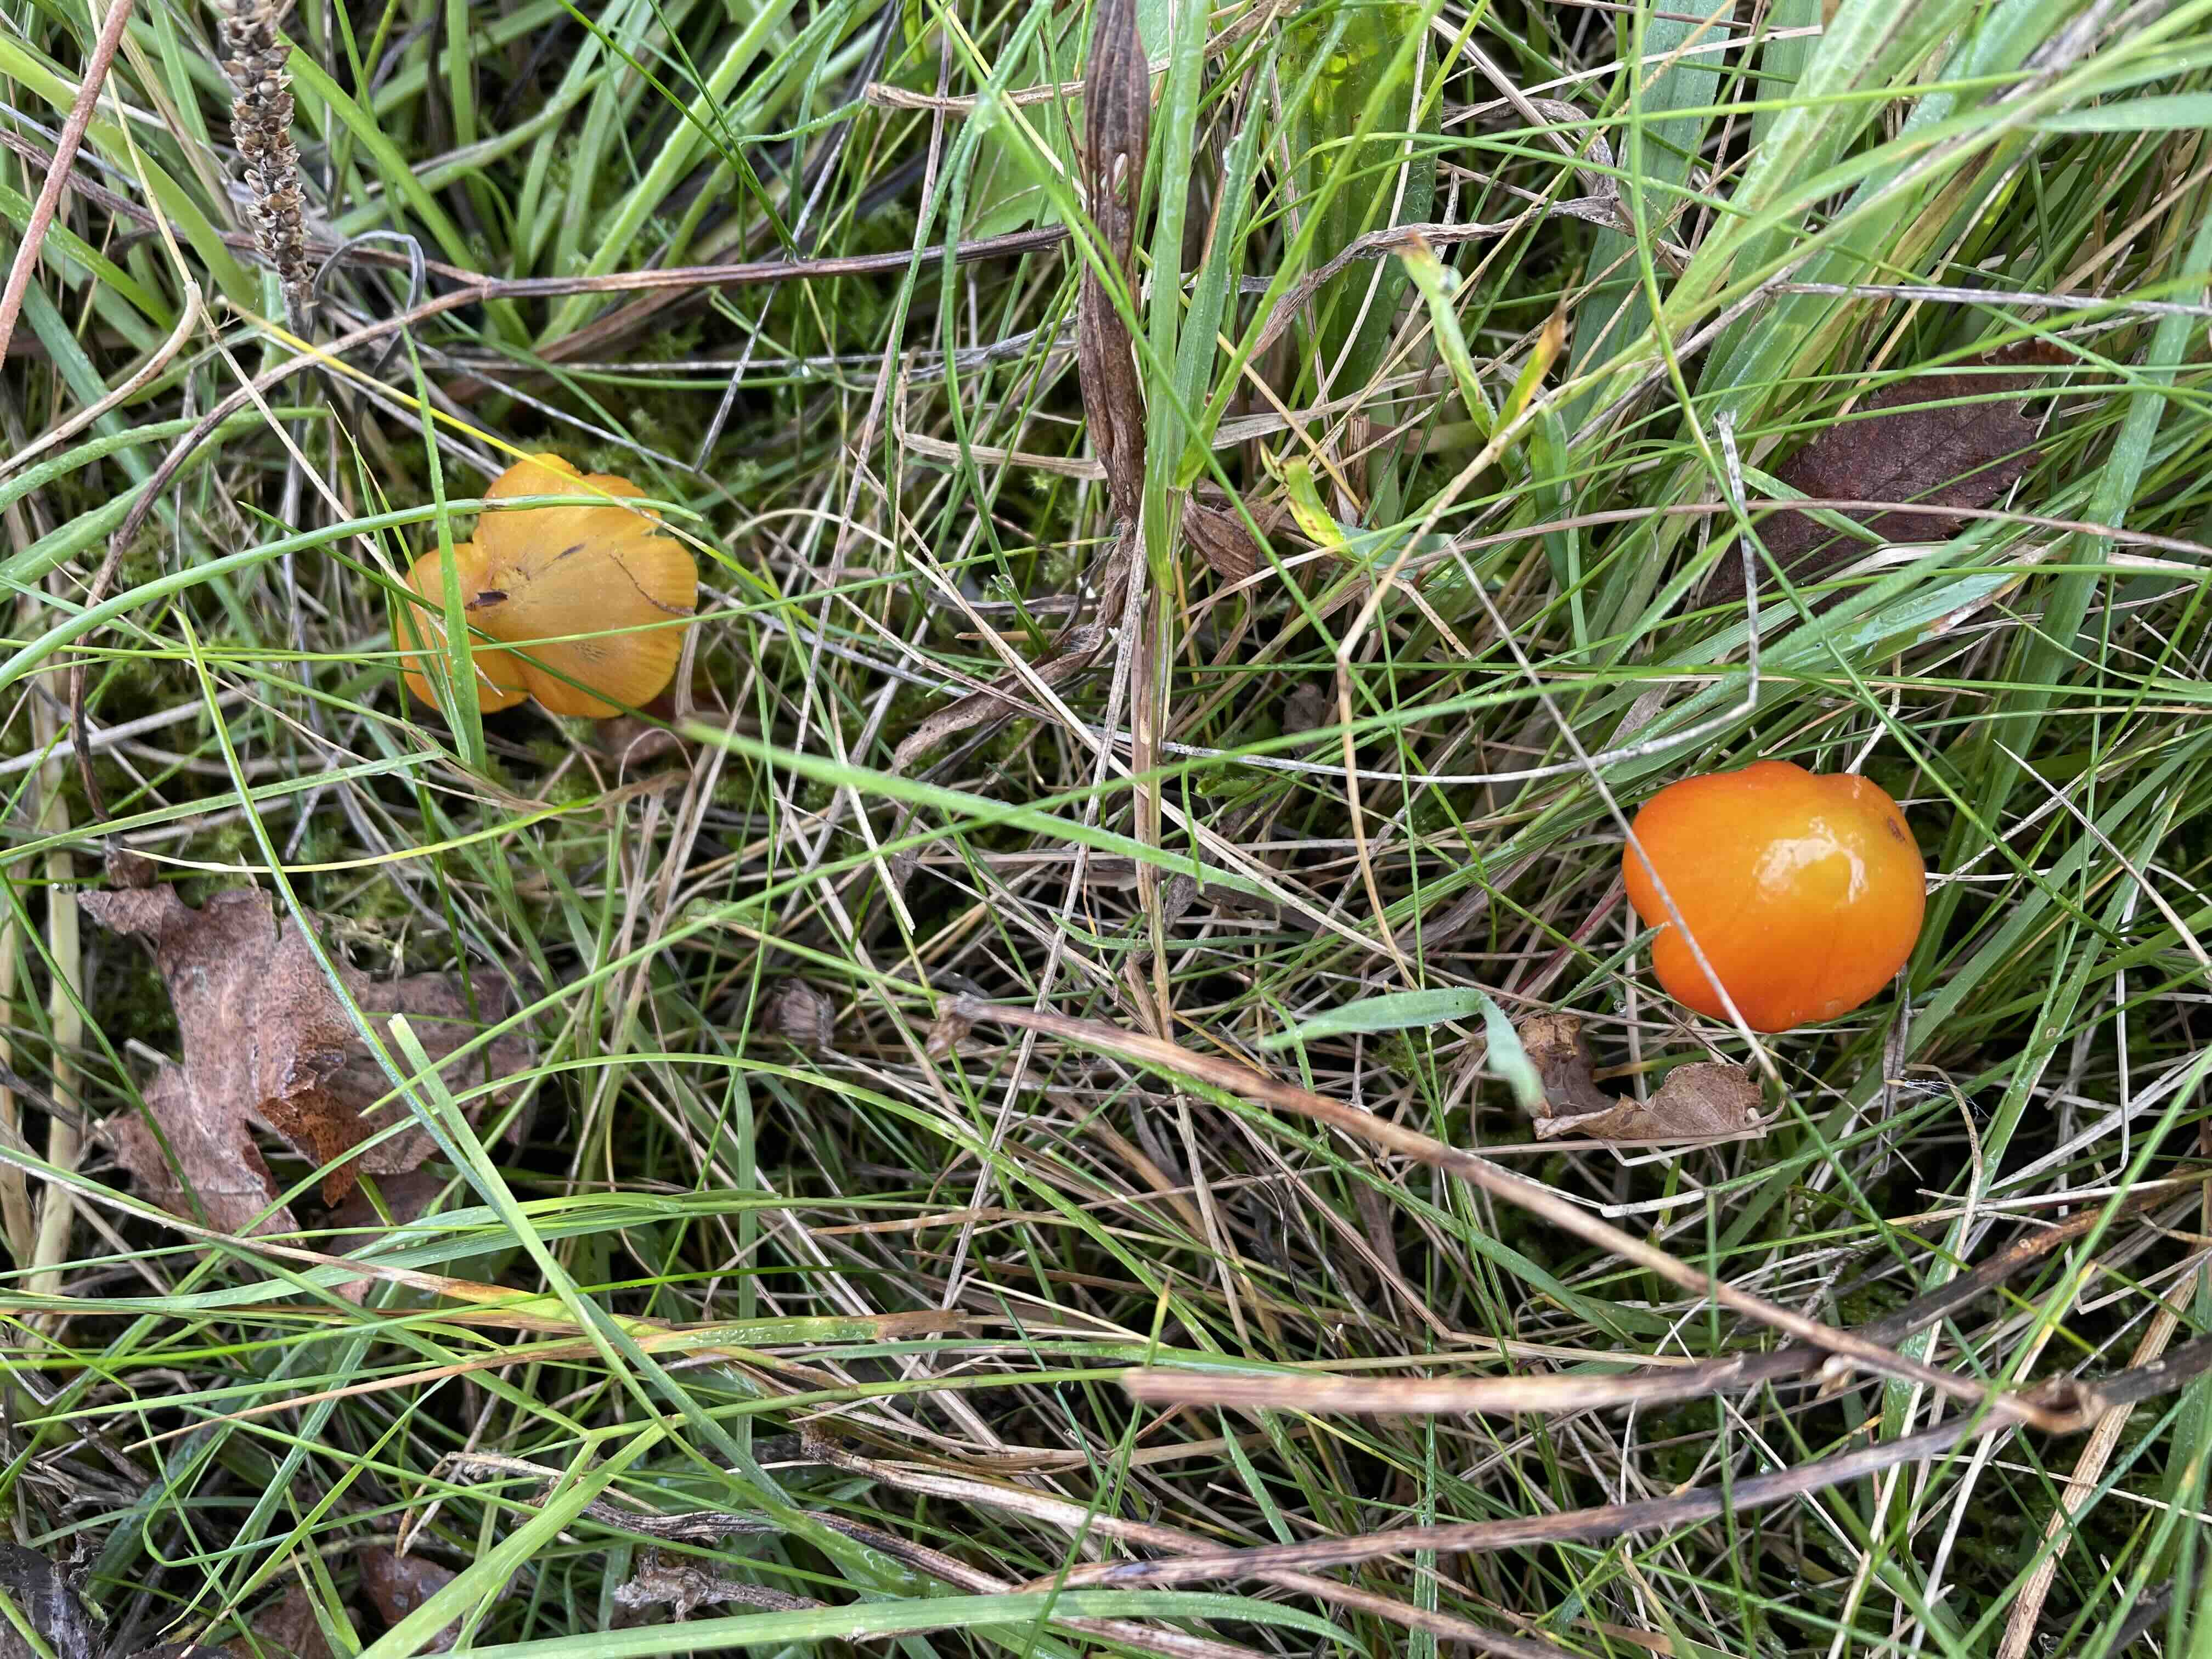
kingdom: Fungi
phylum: Basidiomycota
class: Agaricomycetes
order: Agaricales
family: Hygrophoraceae
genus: Hygrocybe
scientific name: Hygrocybe conica
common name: kegle-vokshat
